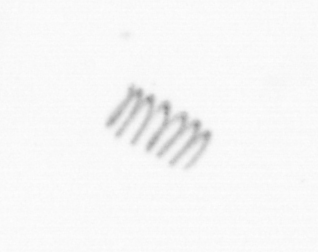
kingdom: Chromista
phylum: Ochrophyta
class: Bacillariophyceae
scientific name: Bacillariophyceae
